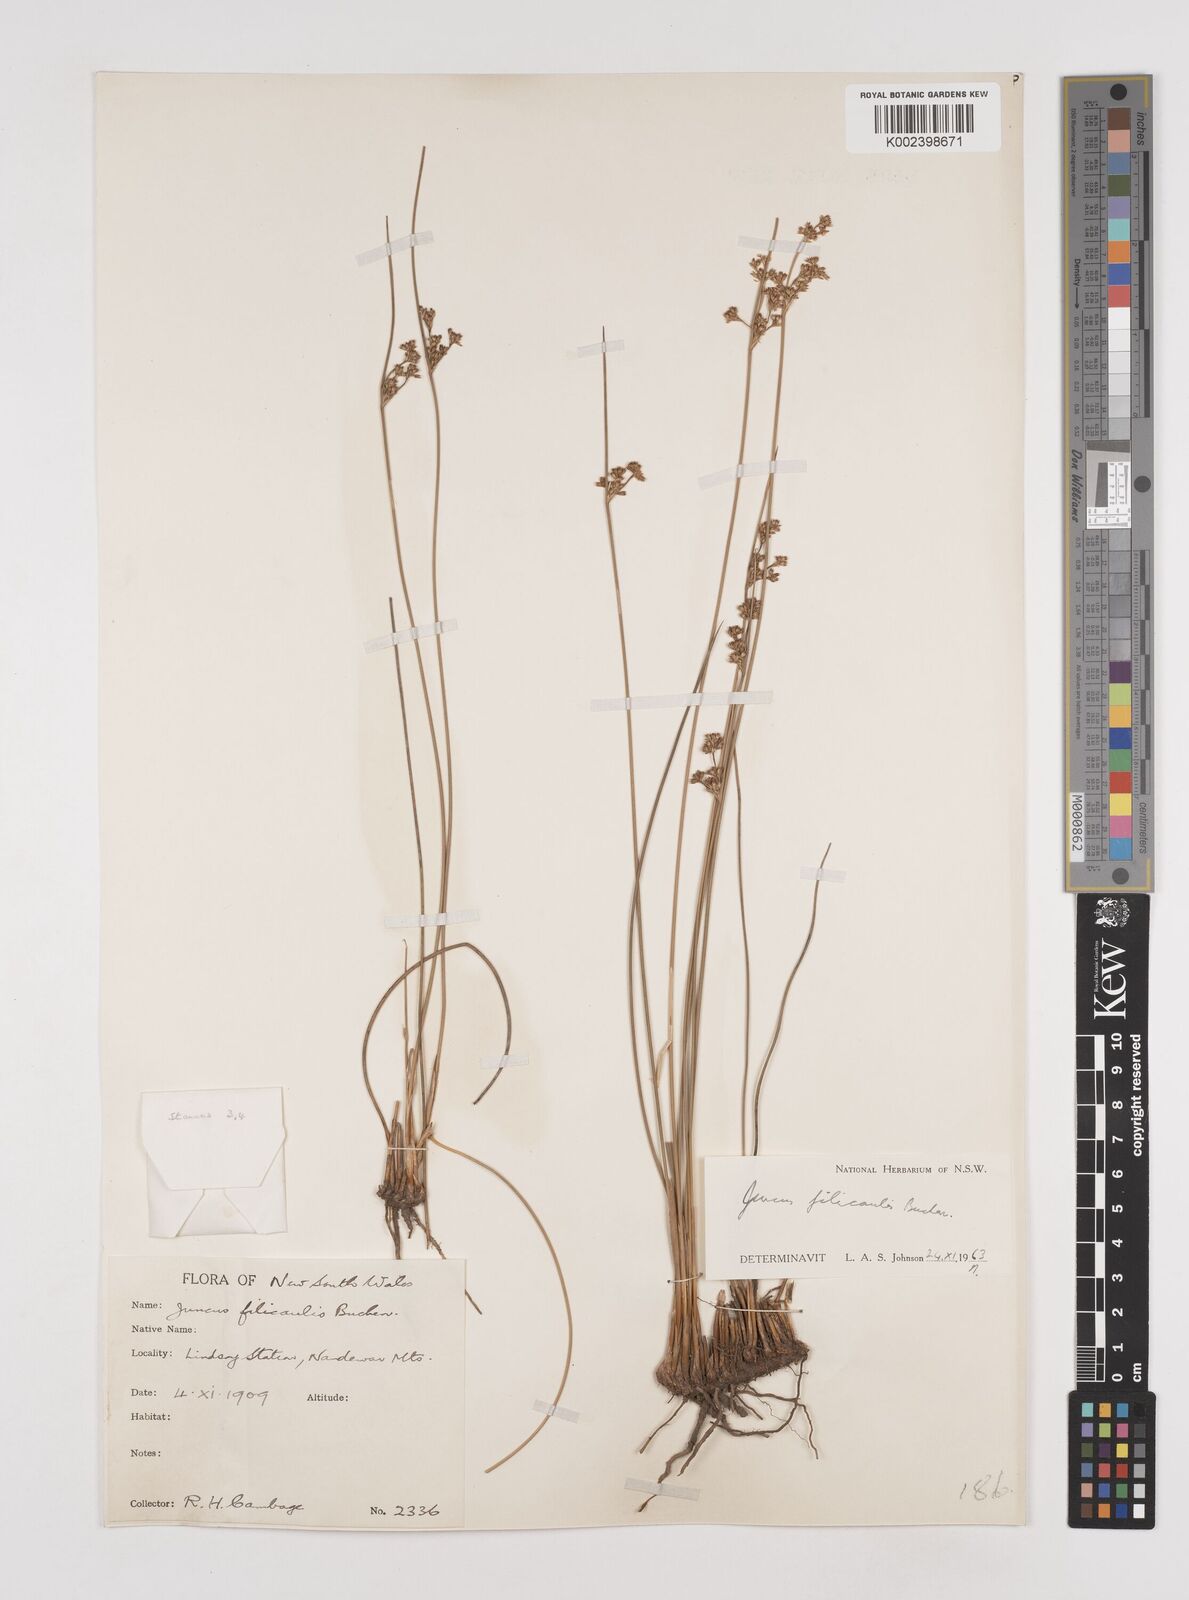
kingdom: Plantae
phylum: Tracheophyta
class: Liliopsida
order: Poales
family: Juncaceae
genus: Juncus
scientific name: Juncus filicaulis
